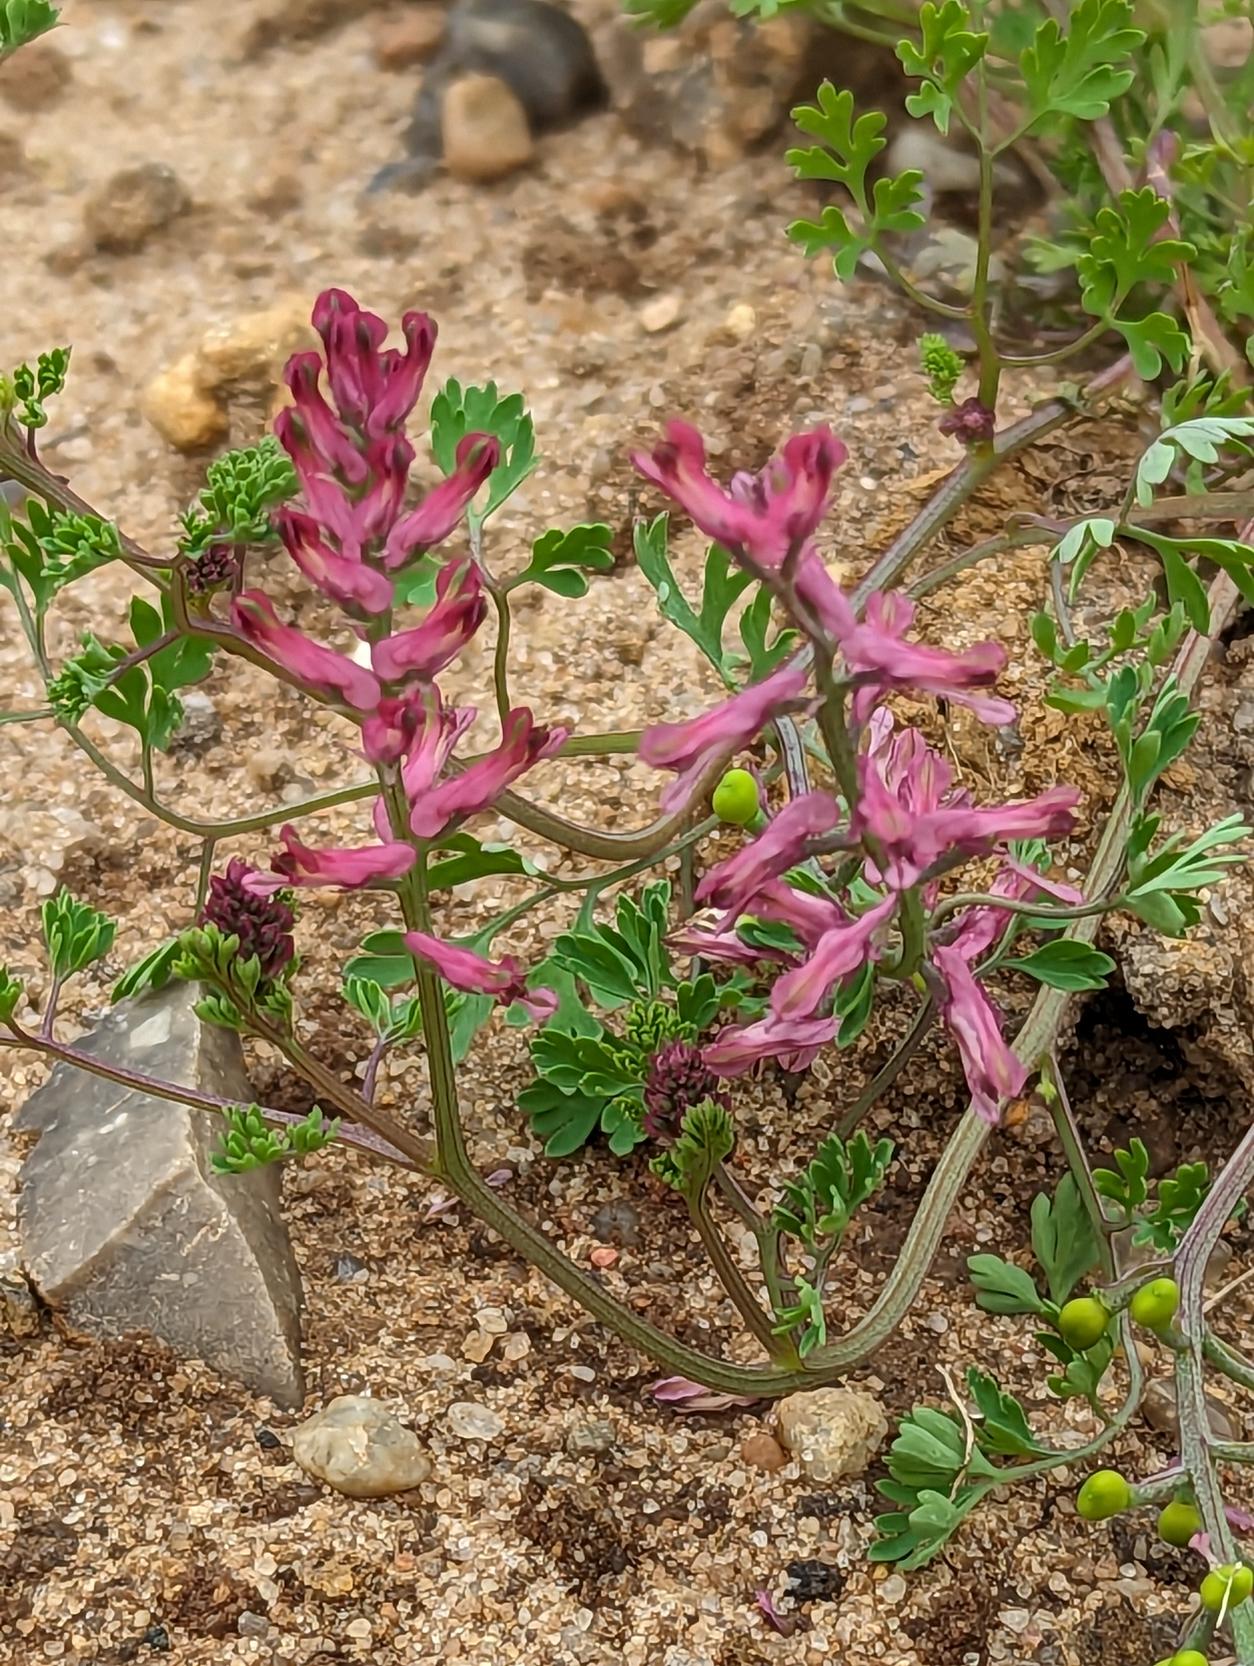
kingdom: Plantae
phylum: Tracheophyta
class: Magnoliopsida
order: Ranunculales
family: Papaveraceae
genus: Fumaria
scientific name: Fumaria officinalis
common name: Læge-jordrøg
